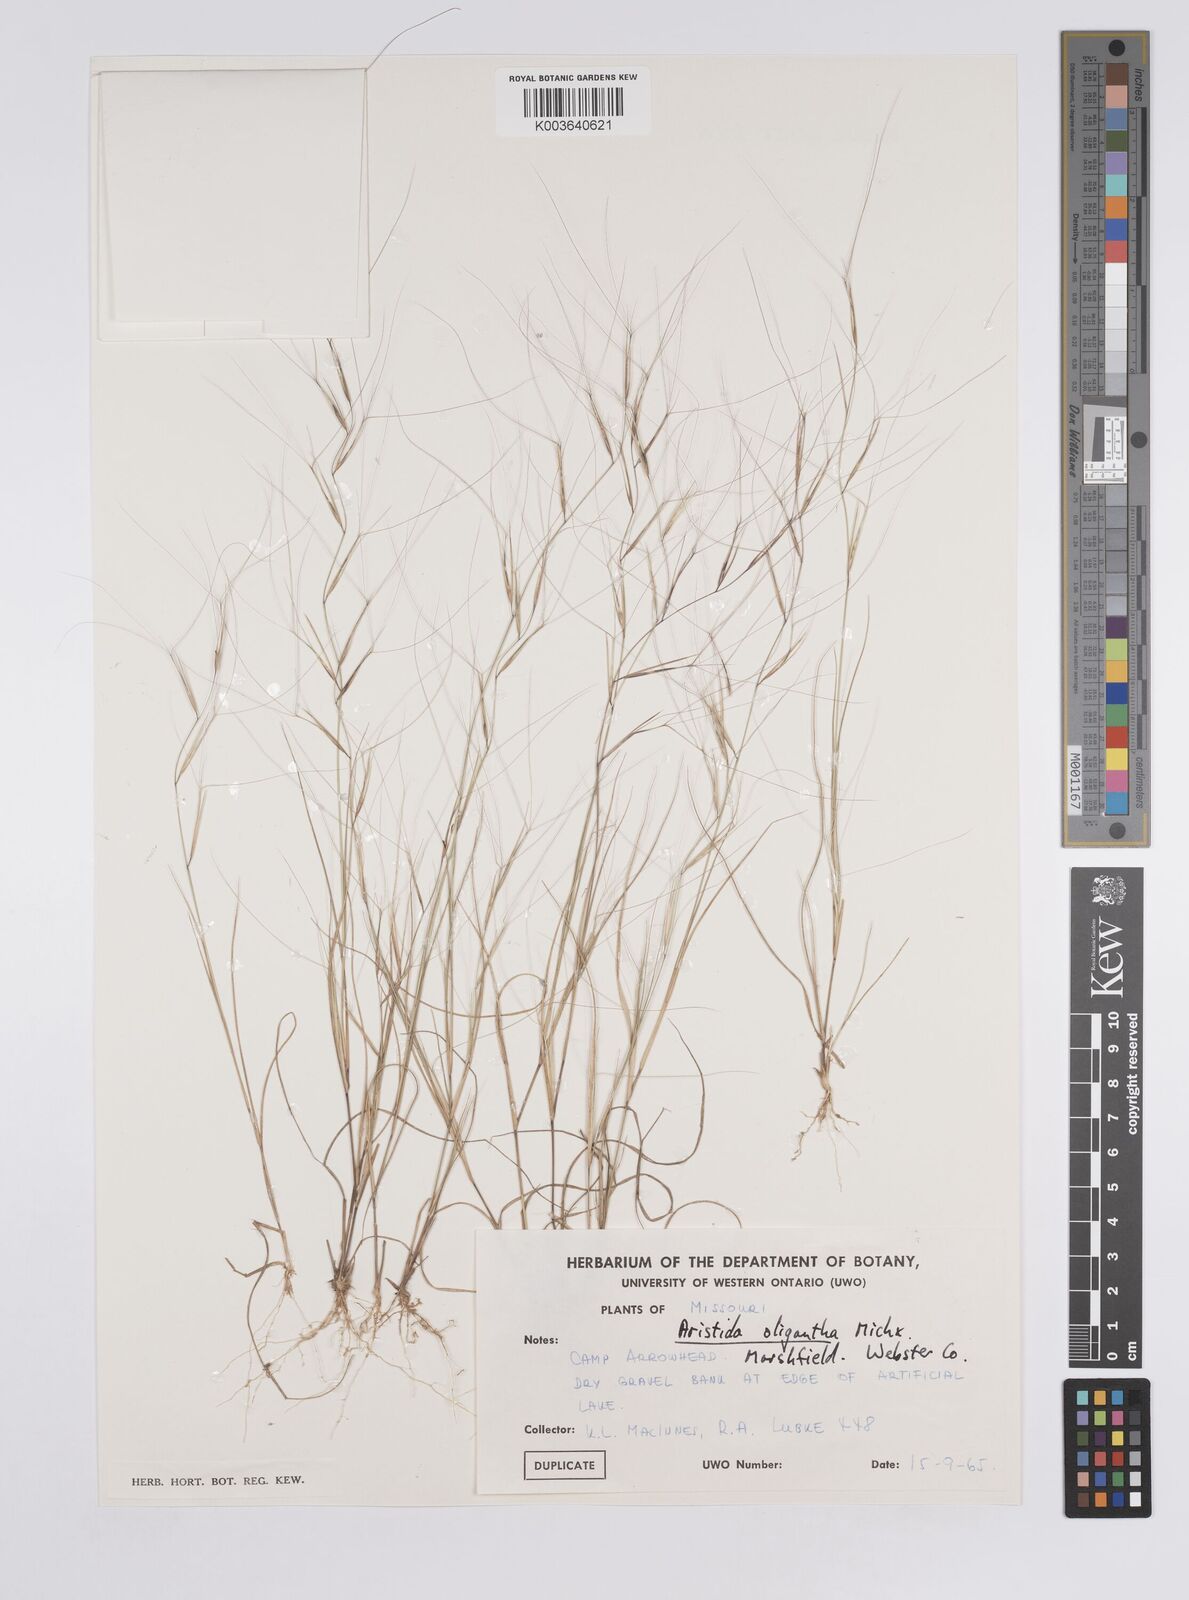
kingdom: Plantae
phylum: Tracheophyta
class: Liliopsida
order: Poales
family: Poaceae
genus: Aristida
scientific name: Aristida oligantha
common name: Few-flowered aristida
